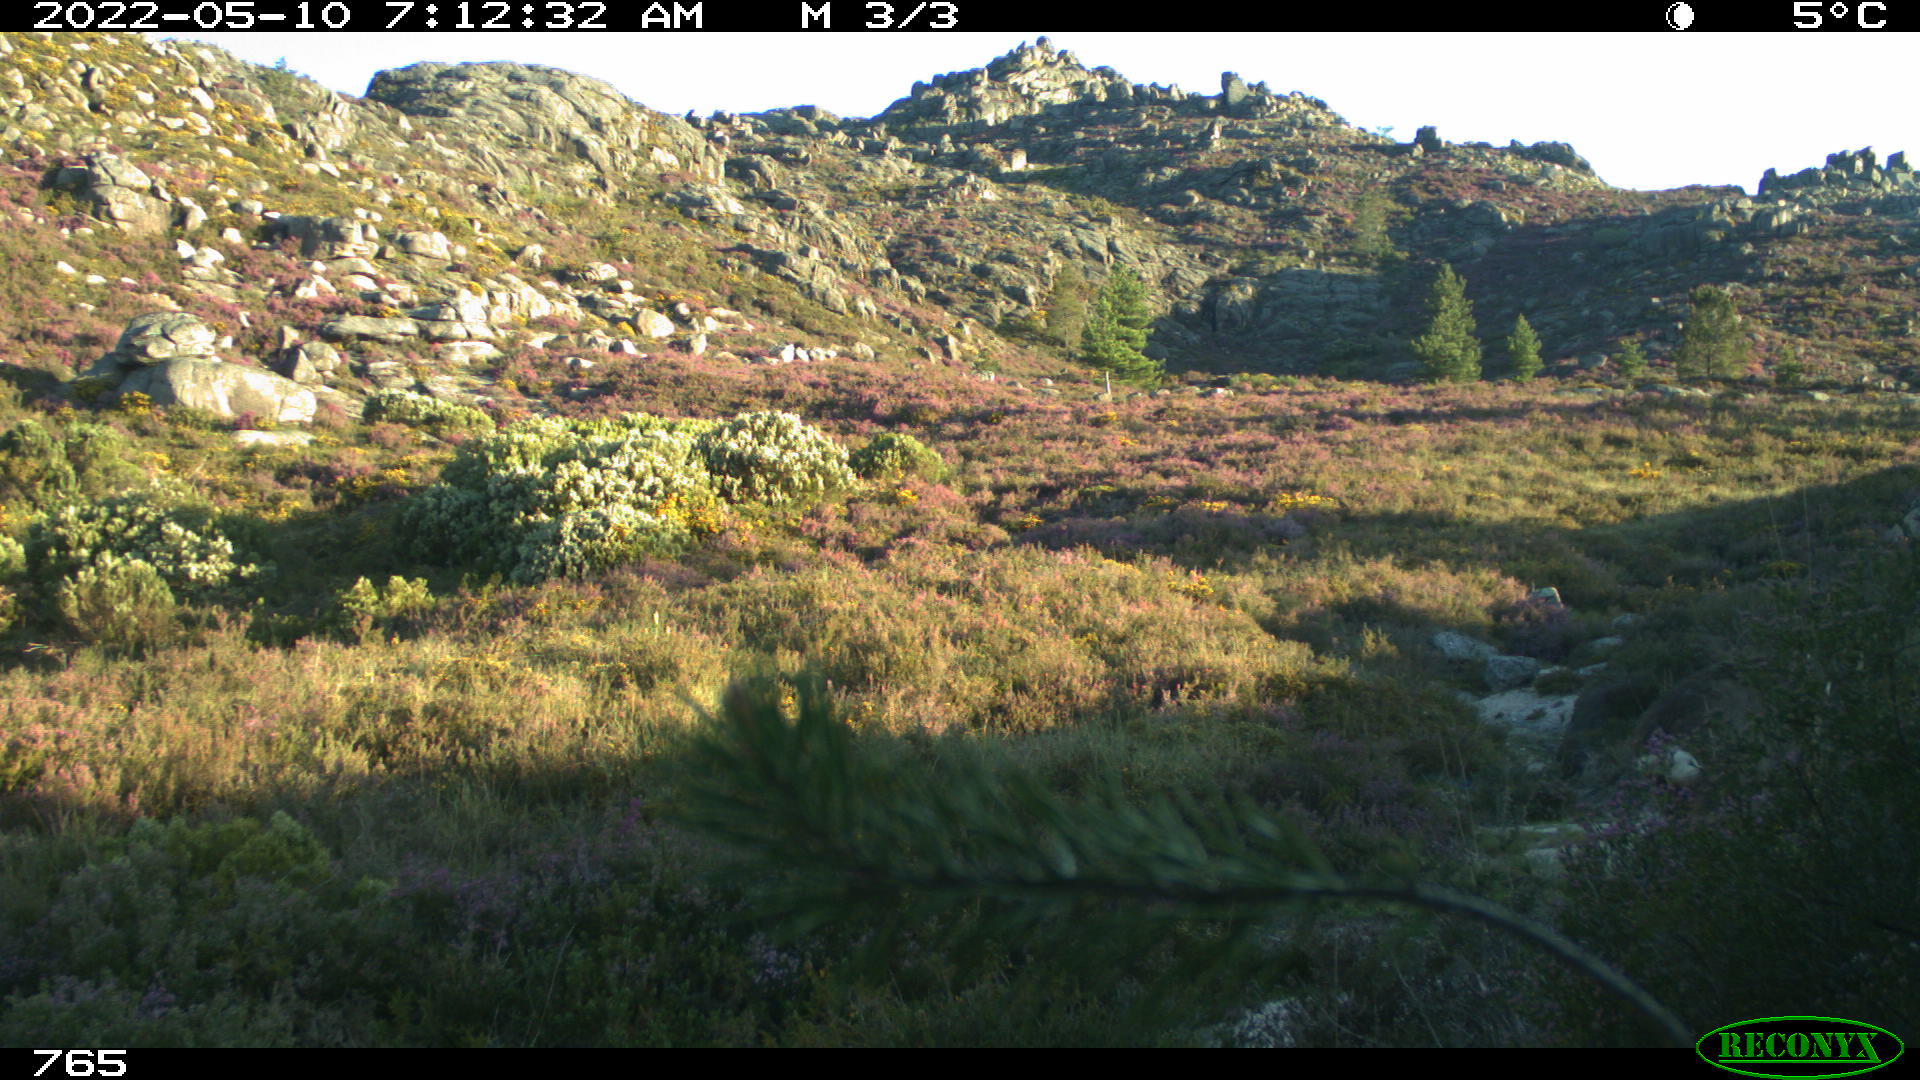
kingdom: Animalia
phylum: Chordata
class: Mammalia
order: Artiodactyla
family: Cervidae
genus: Capreolus
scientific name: Capreolus capreolus
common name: Western roe deer
